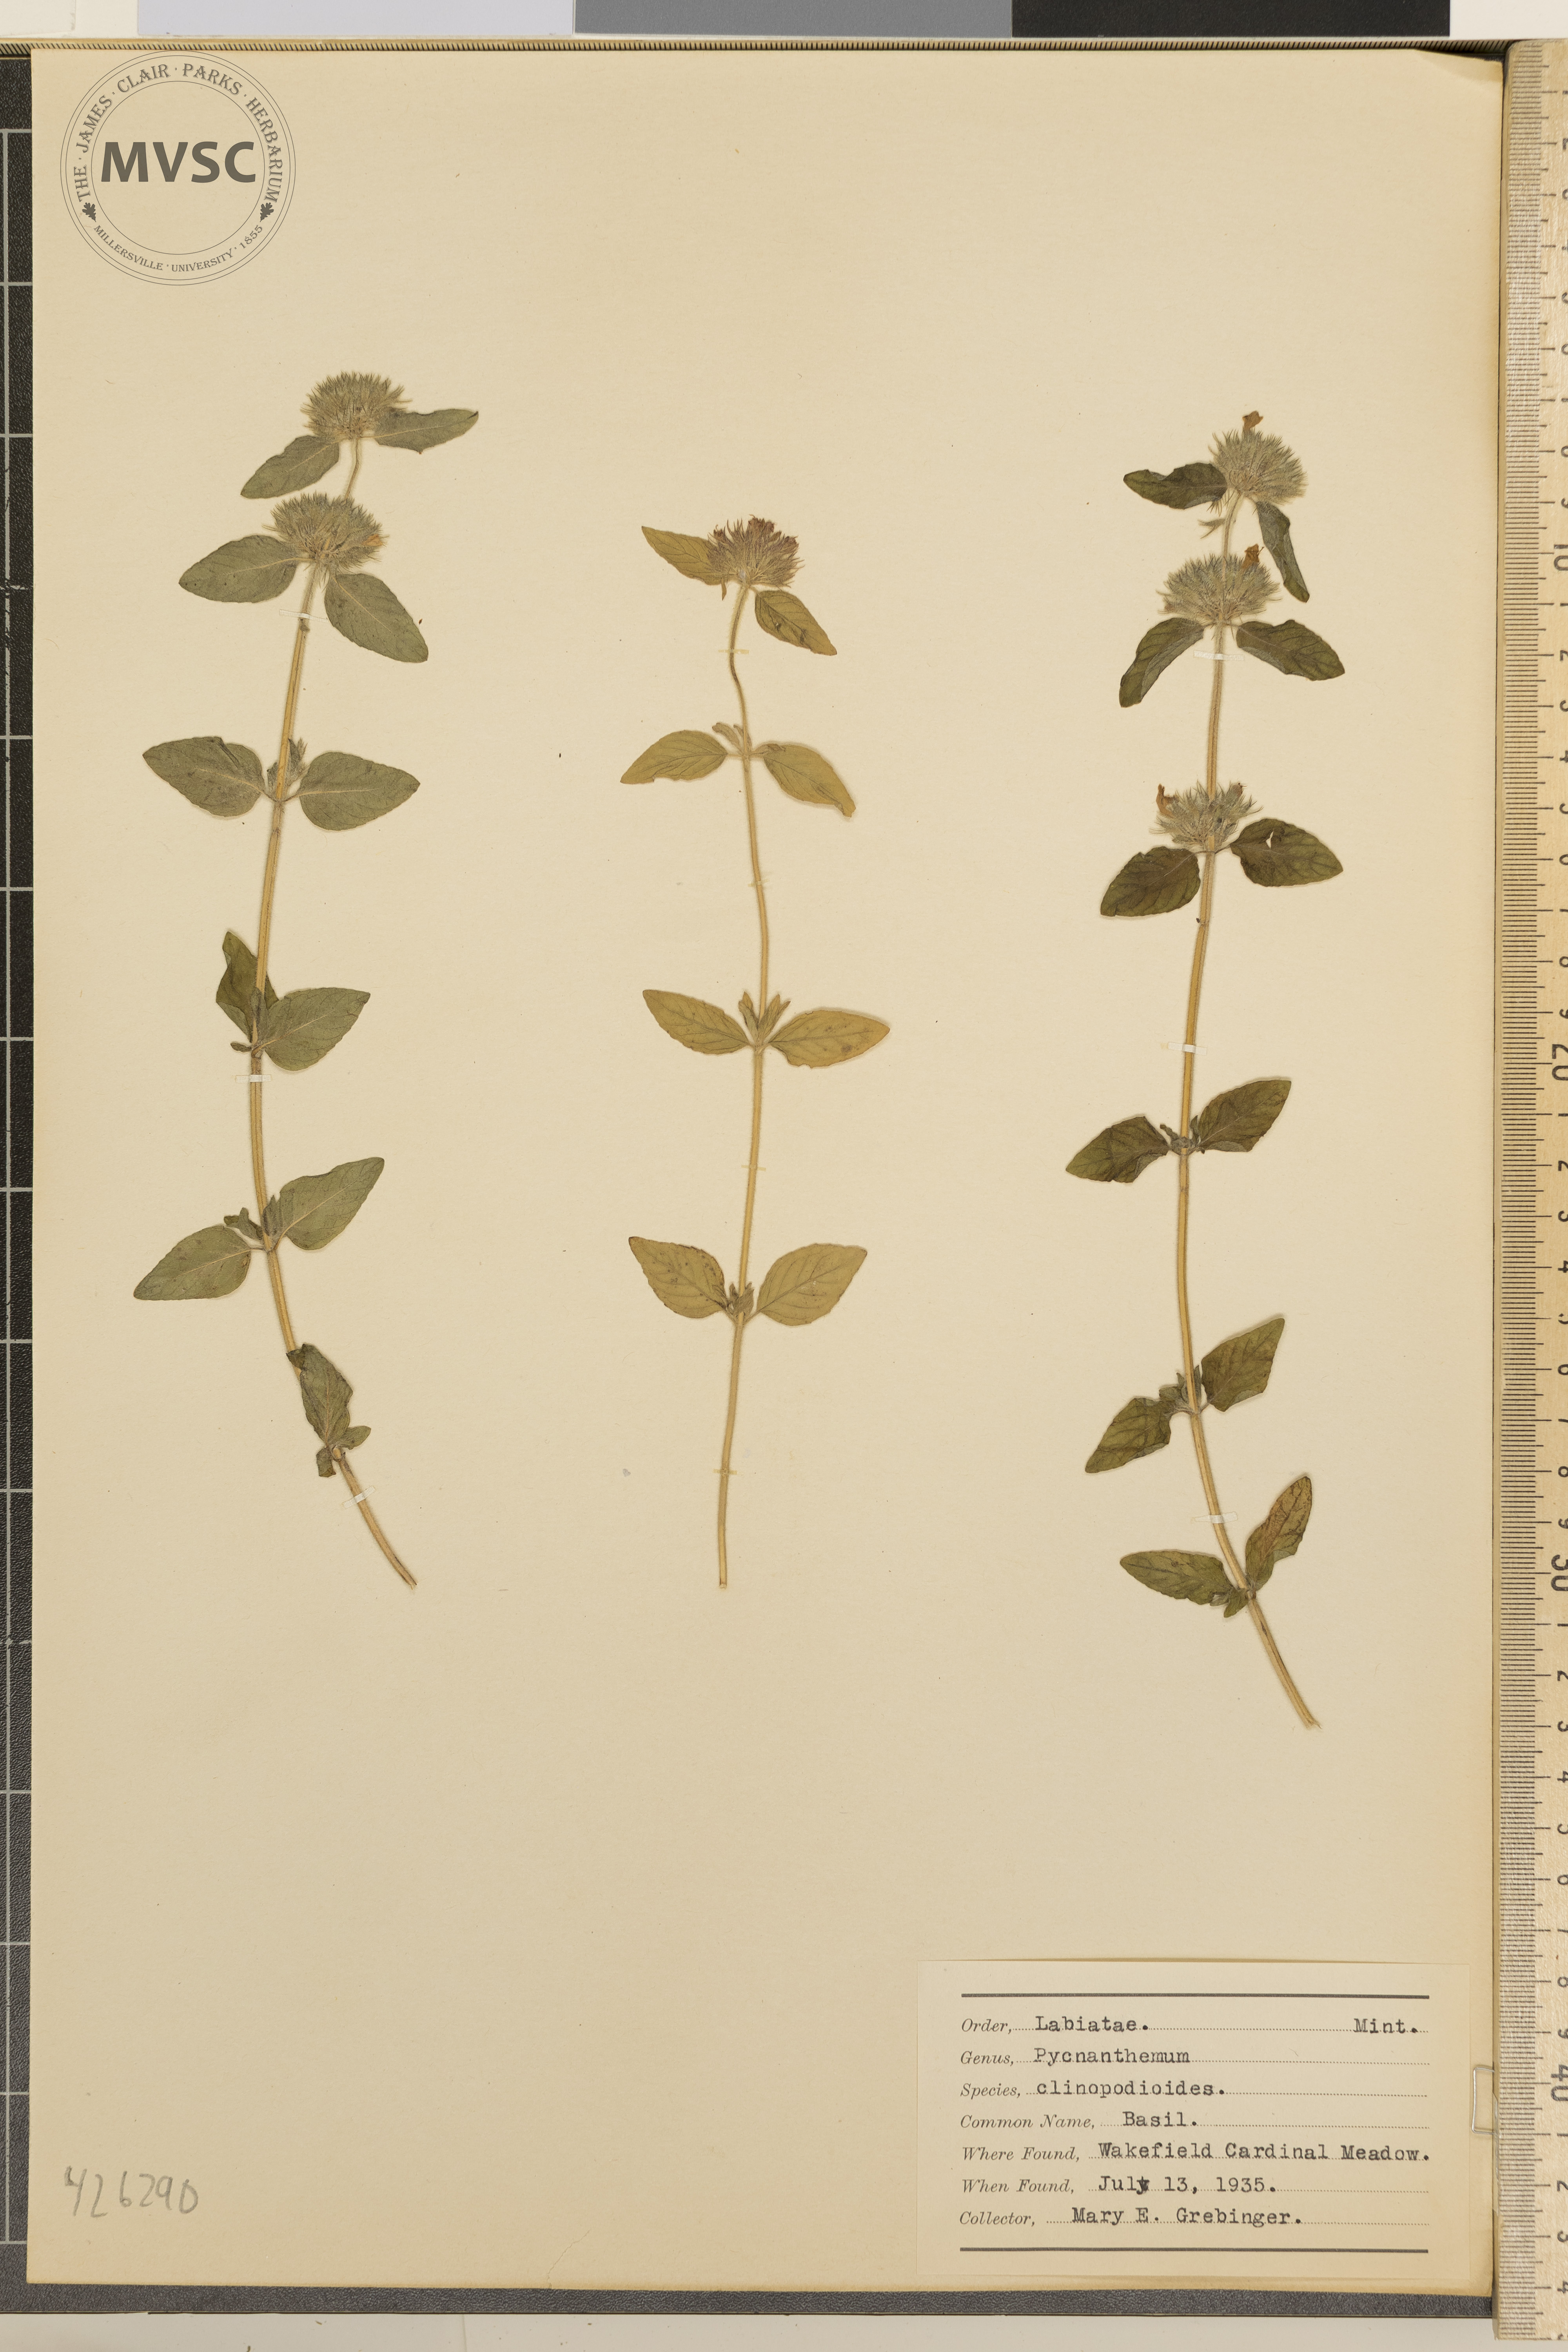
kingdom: Plantae
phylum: Tracheophyta
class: Magnoliopsida
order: Lamiales
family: Lamiaceae
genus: Pycnanthemum
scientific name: Pycnanthemum clinopodioides
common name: Basil
